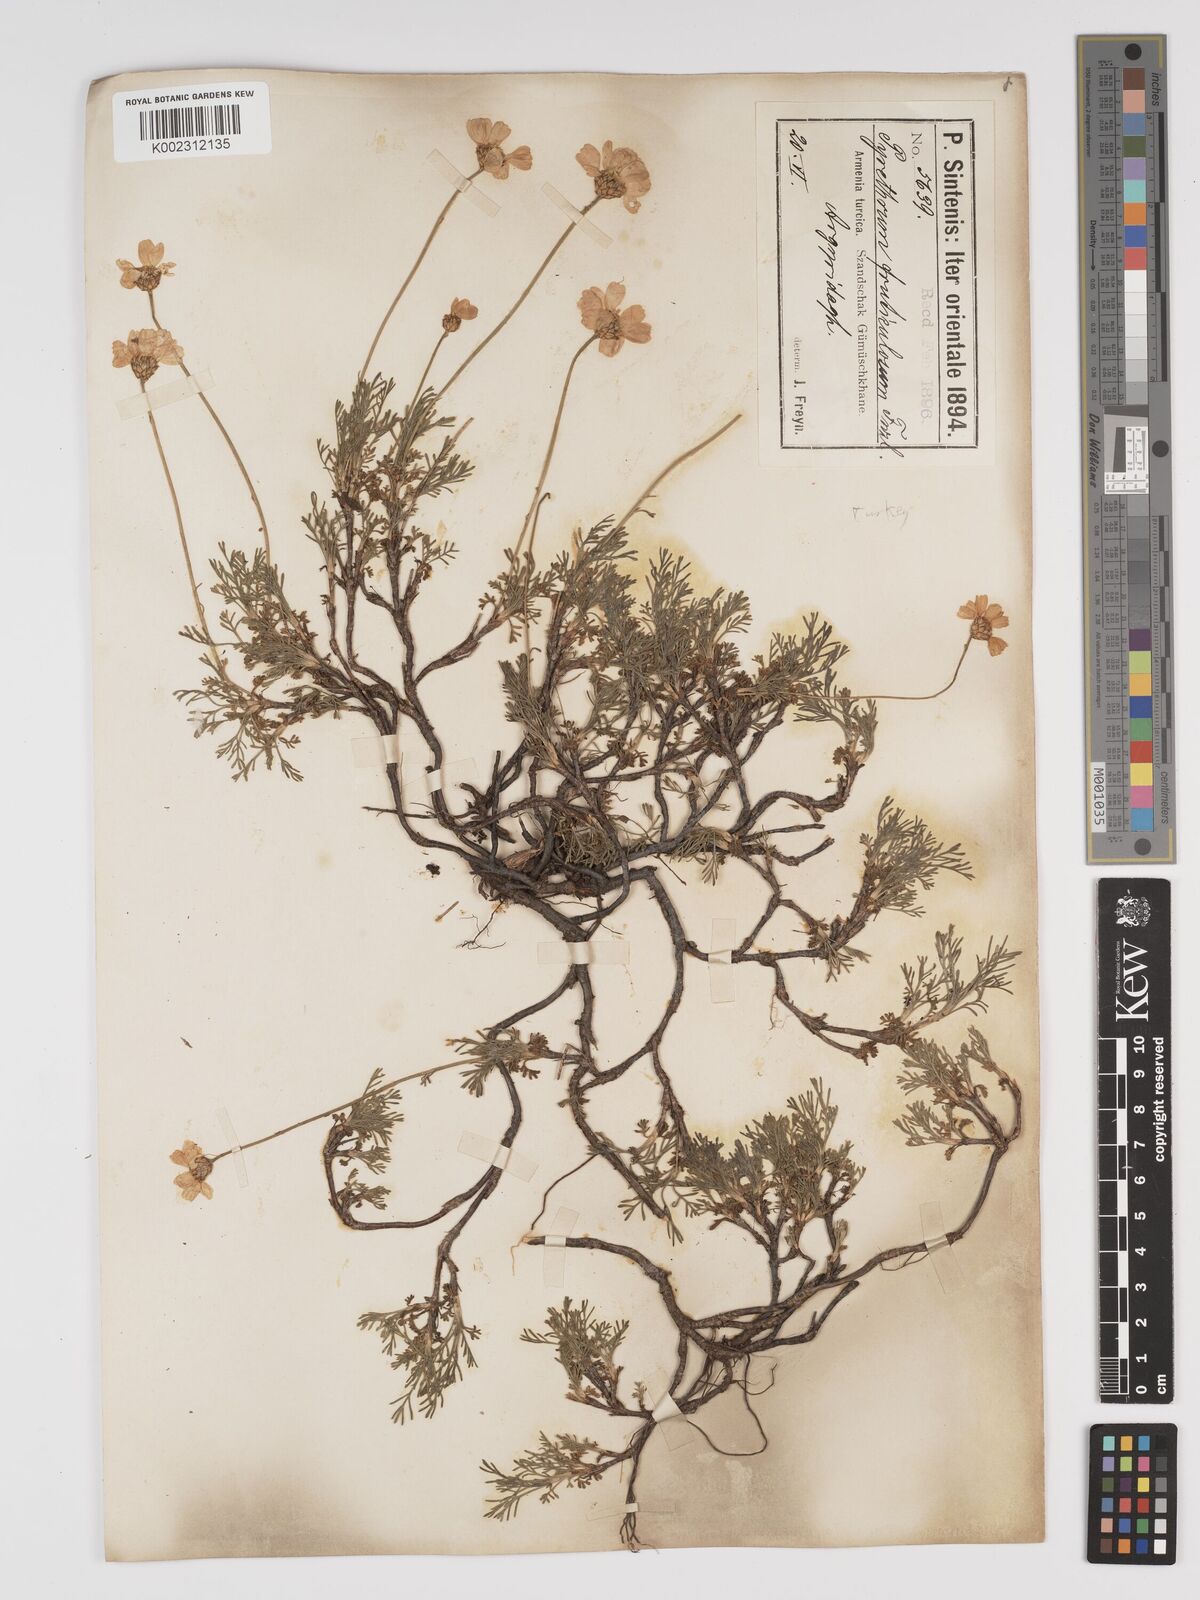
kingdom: Plantae
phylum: Tracheophyta
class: Magnoliopsida
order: Asterales
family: Asteraceae
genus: Ajania
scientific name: Ajania fruticulosa
